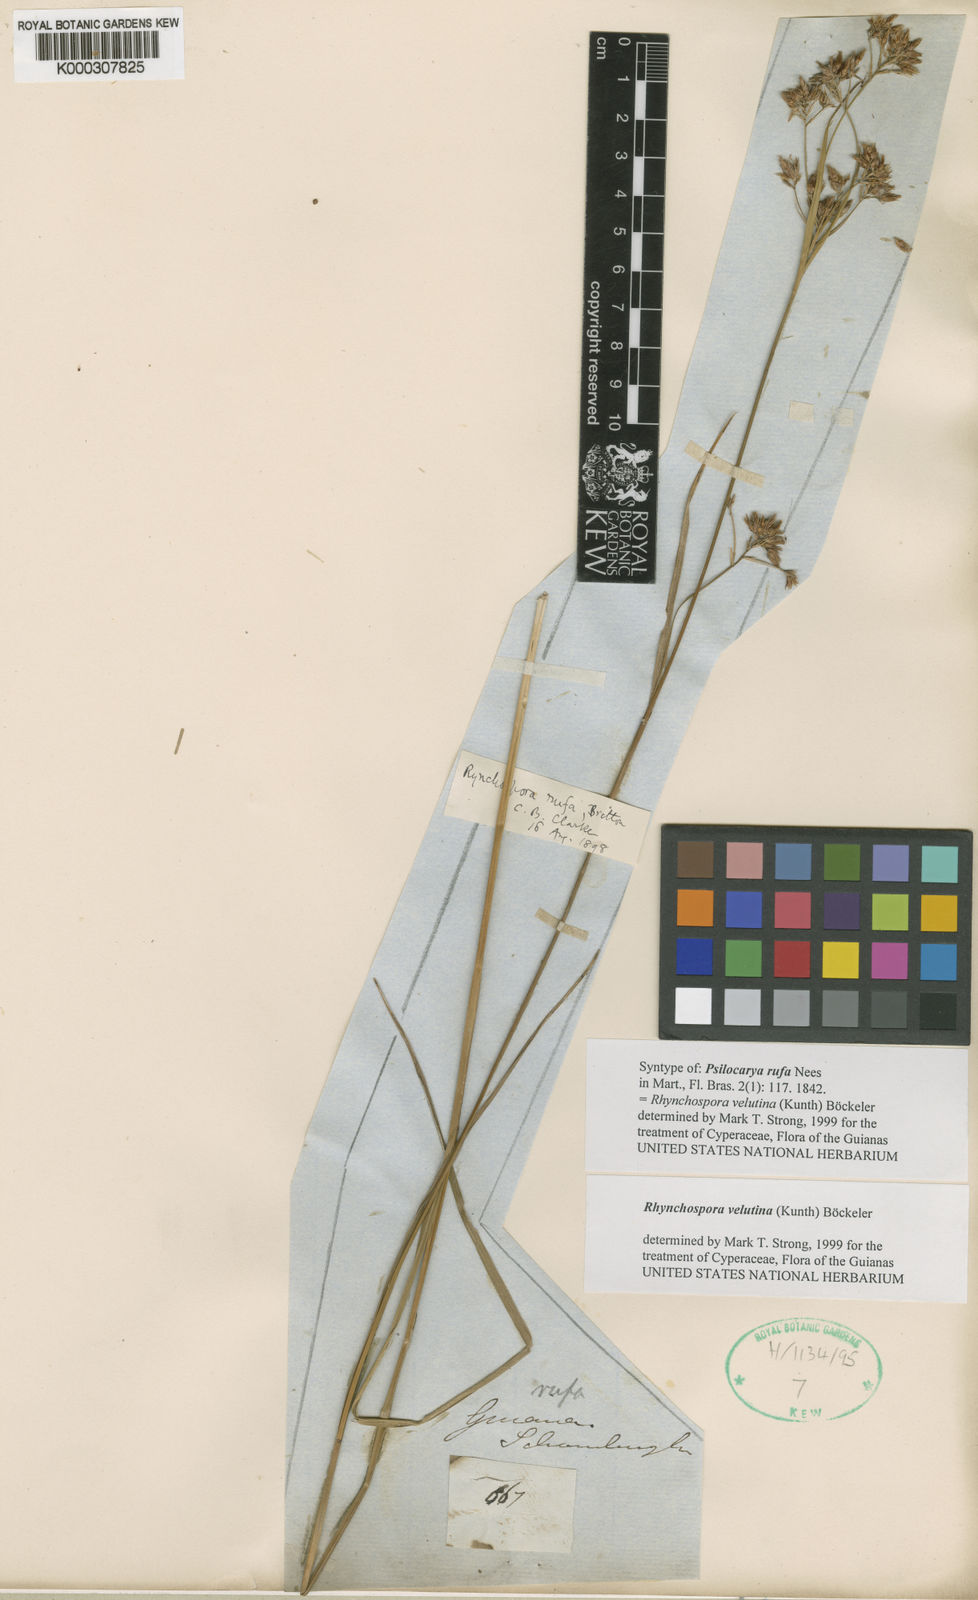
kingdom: Plantae
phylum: Tracheophyta
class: Liliopsida
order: Poales
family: Cyperaceae
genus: Rhynchospora
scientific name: Rhynchospora velutina
